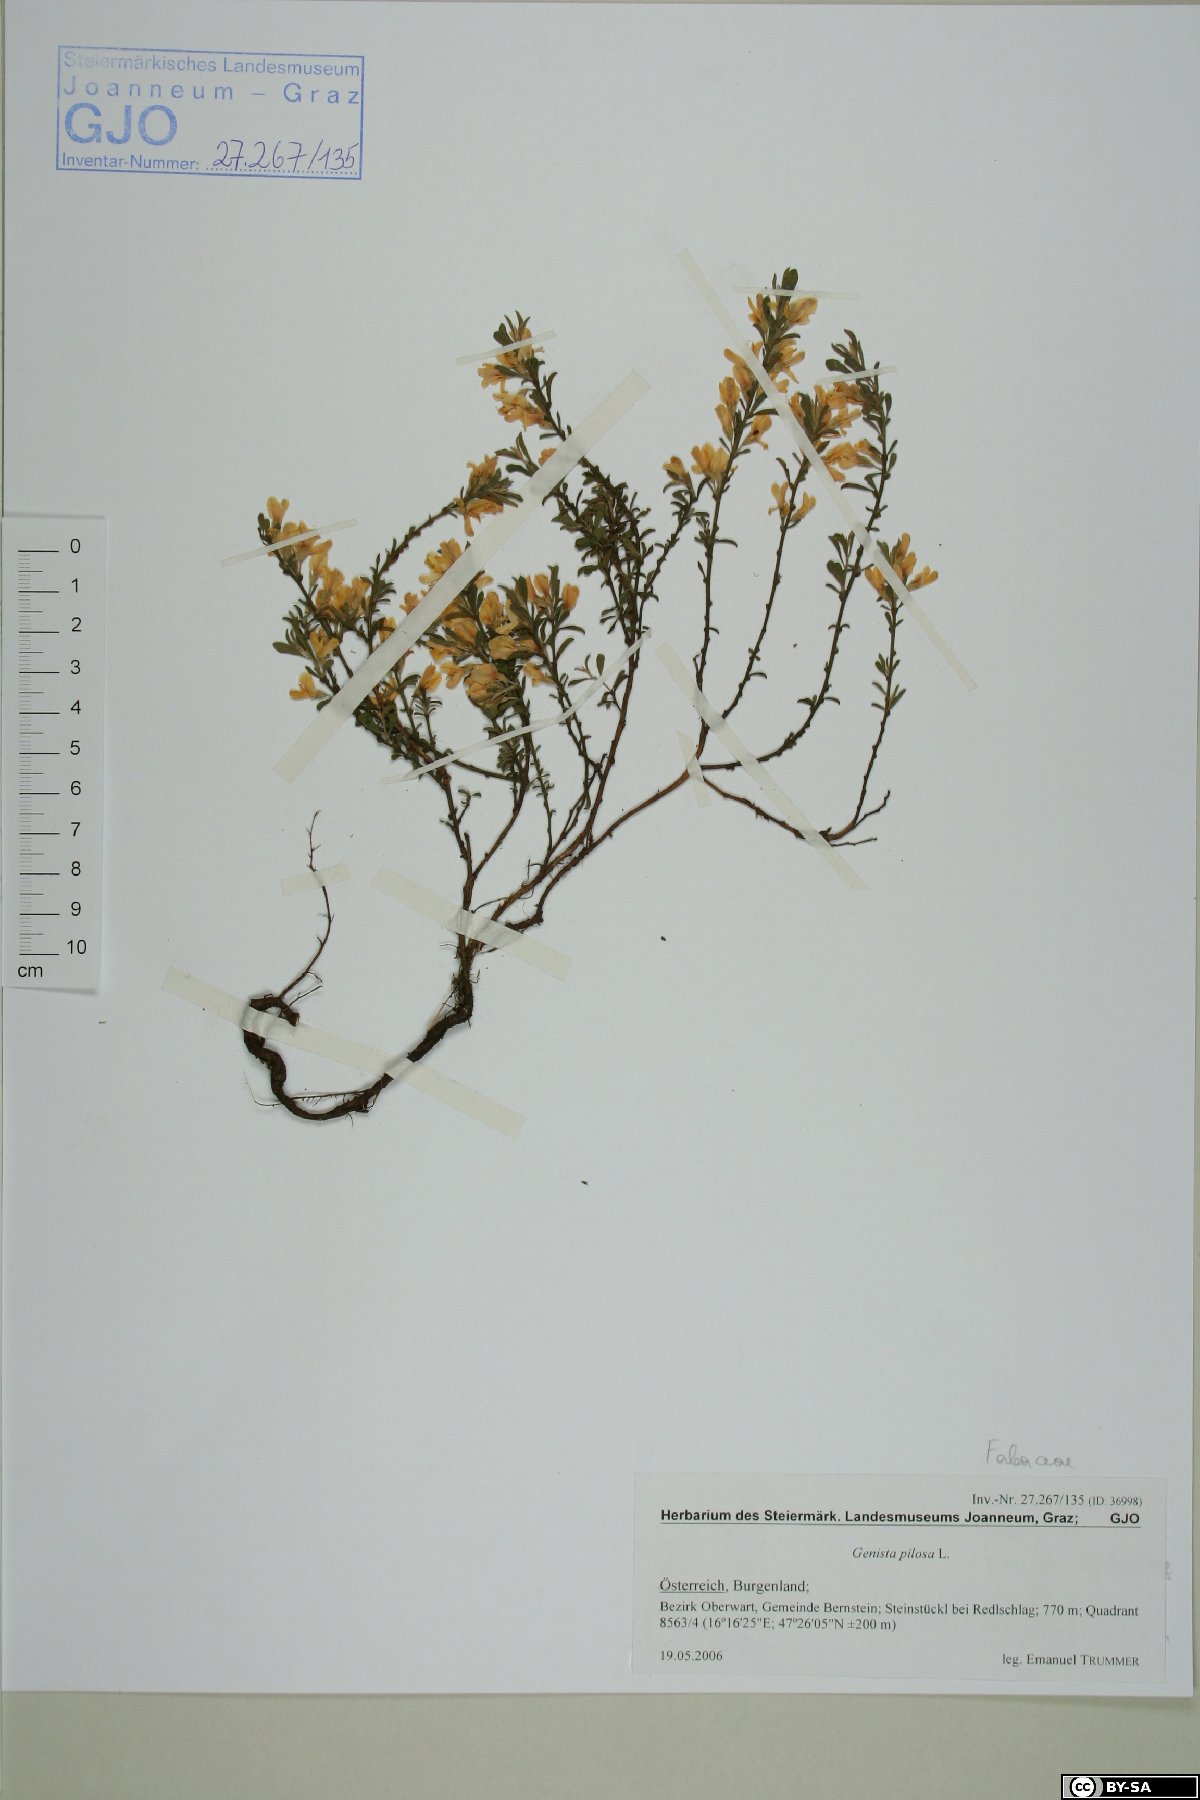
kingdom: Plantae
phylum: Tracheophyta
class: Magnoliopsida
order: Fabales
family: Fabaceae
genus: Genista
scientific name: Genista pilosa
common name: Hairy greenweed
